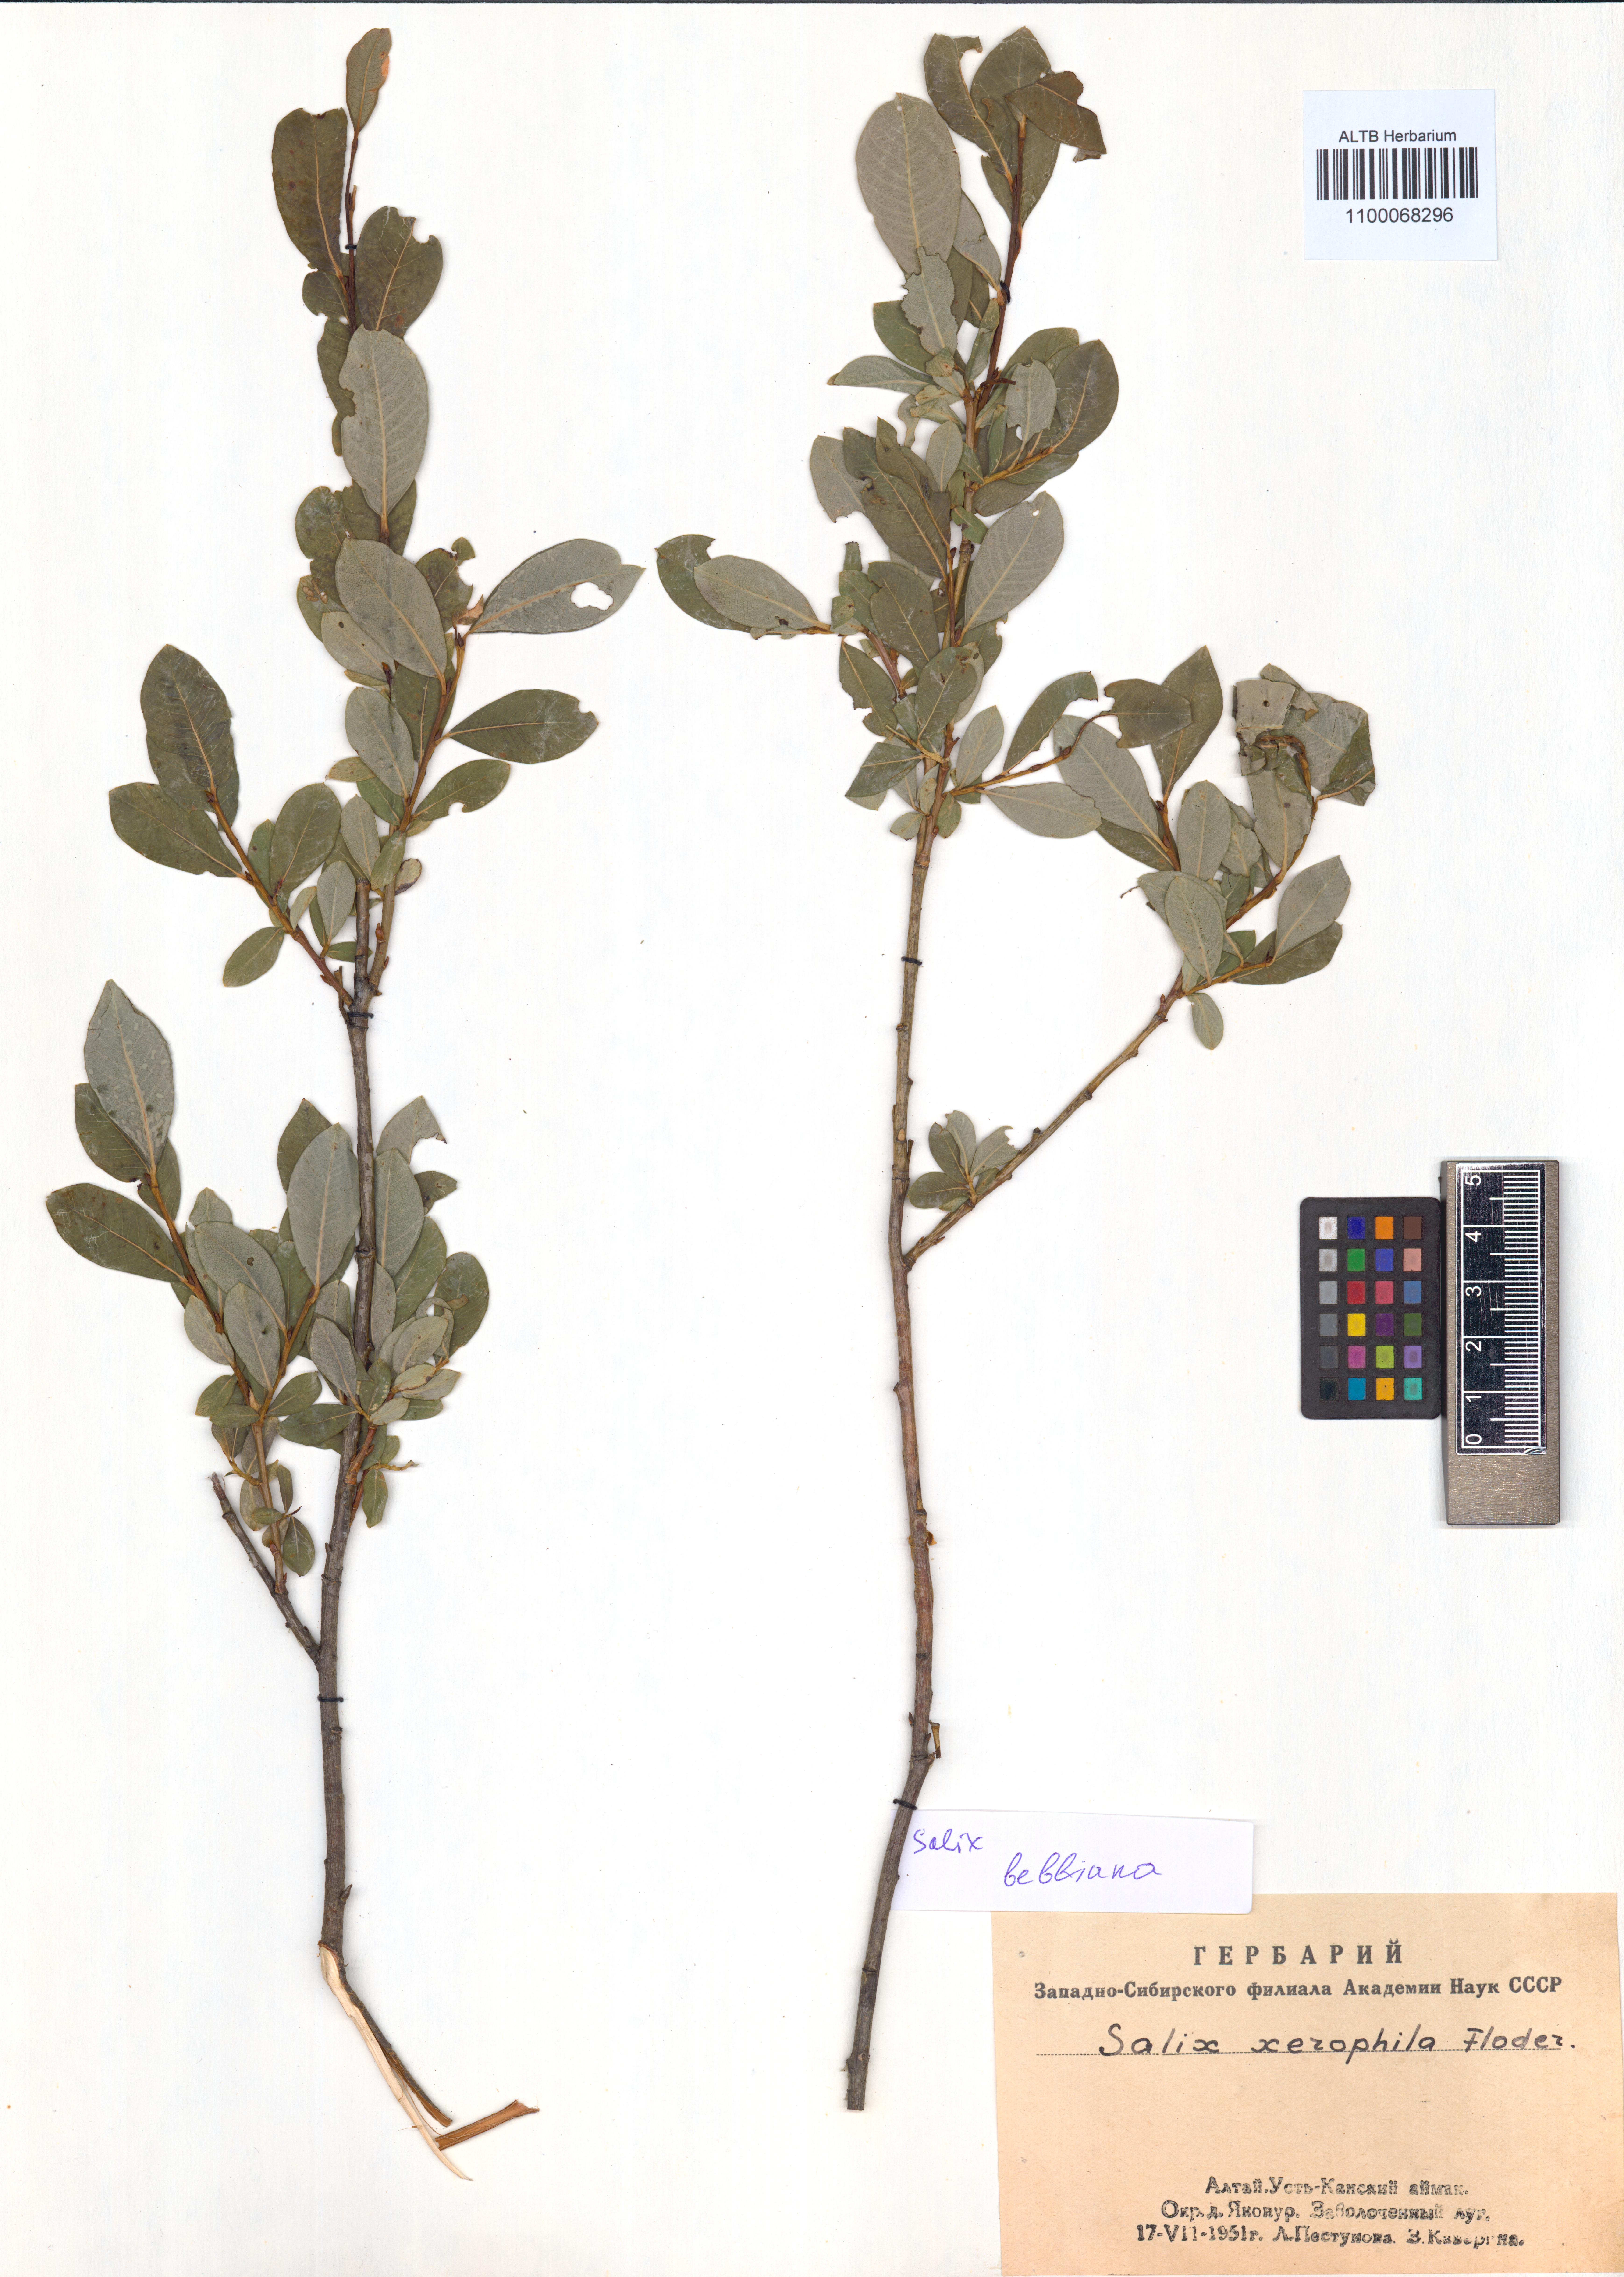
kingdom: Plantae
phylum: Tracheophyta
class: Magnoliopsida
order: Malpighiales
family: Salicaceae
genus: Salix
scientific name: Salix bebbiana
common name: Bebb's willow
